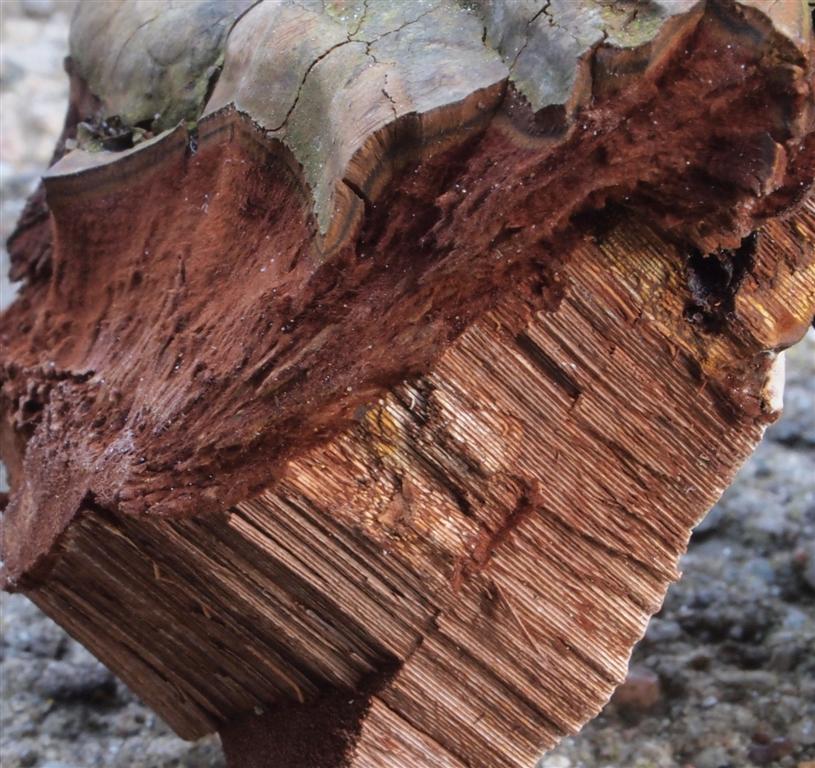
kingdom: Fungi
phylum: Basidiomycota
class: Agaricomycetes
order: Polyporales
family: Polyporaceae
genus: Ganoderma
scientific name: Ganoderma adspersum
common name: grov lakporesvamp
